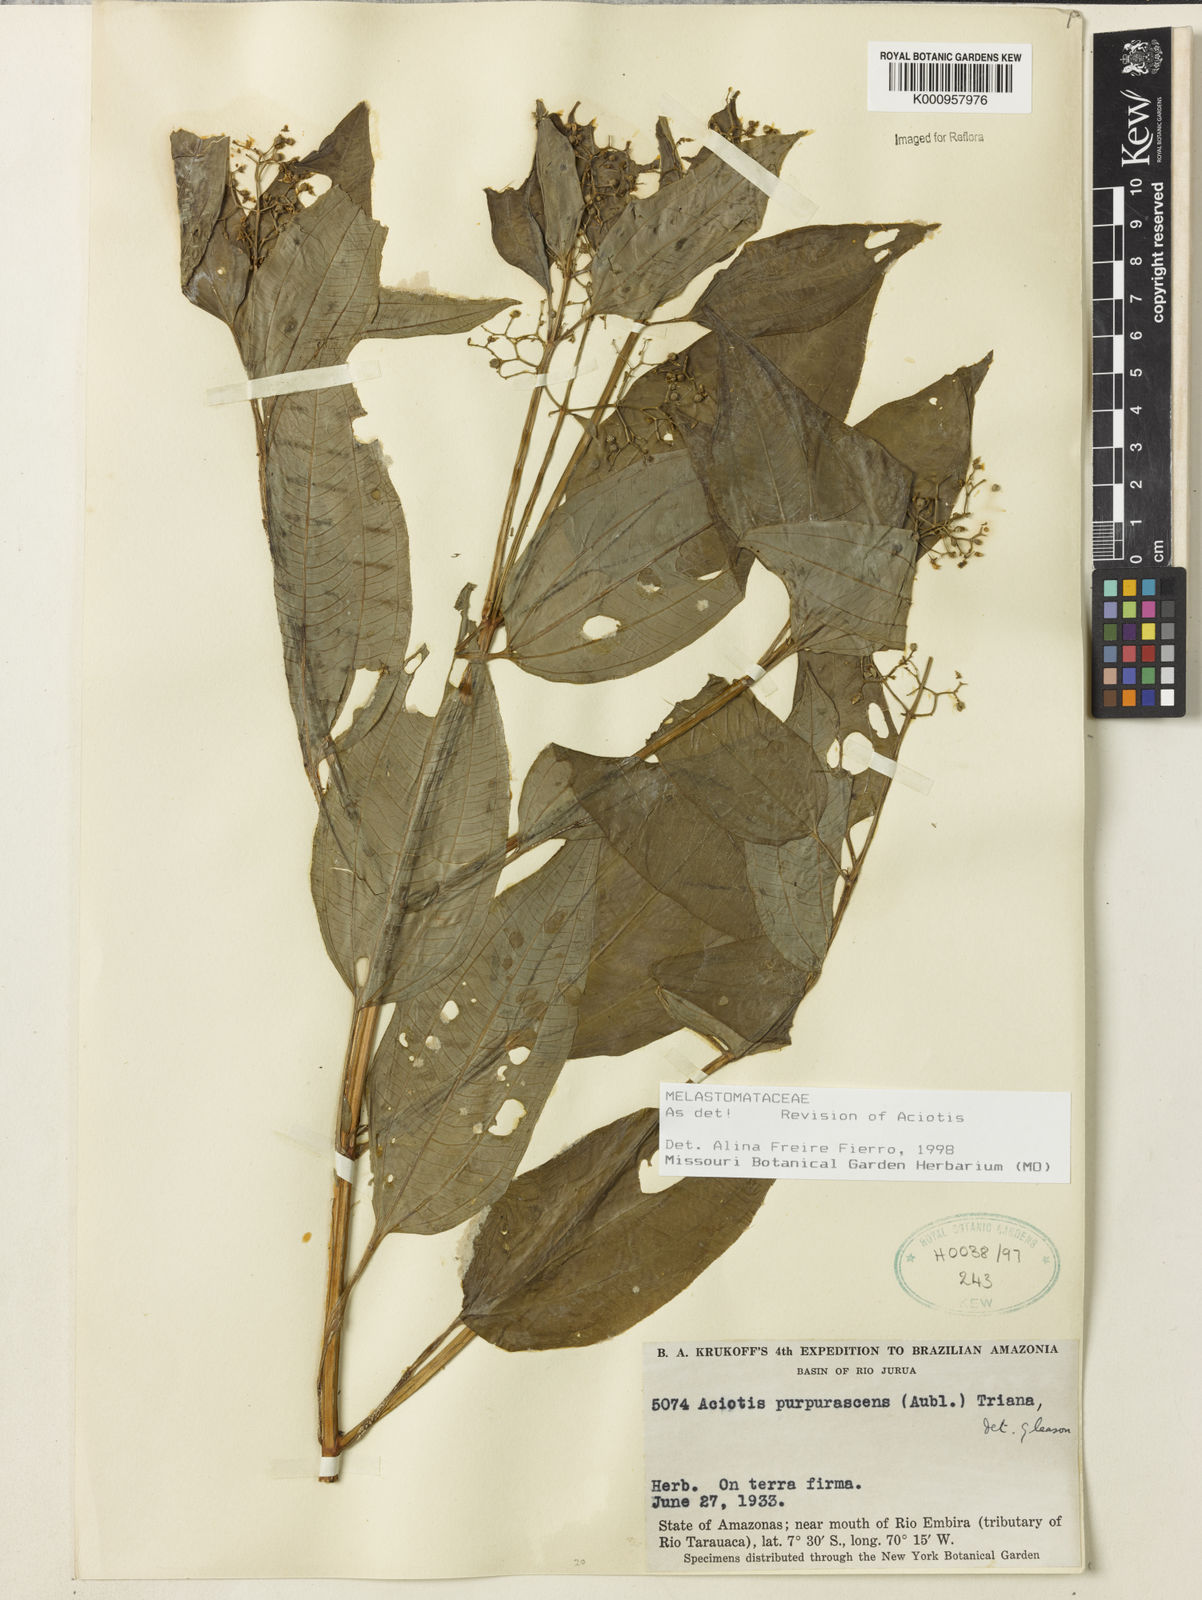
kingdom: Plantae
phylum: Tracheophyta
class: Magnoliopsida
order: Myrtales
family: Melastomataceae
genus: Aciotis
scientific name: Aciotis purpurascens
